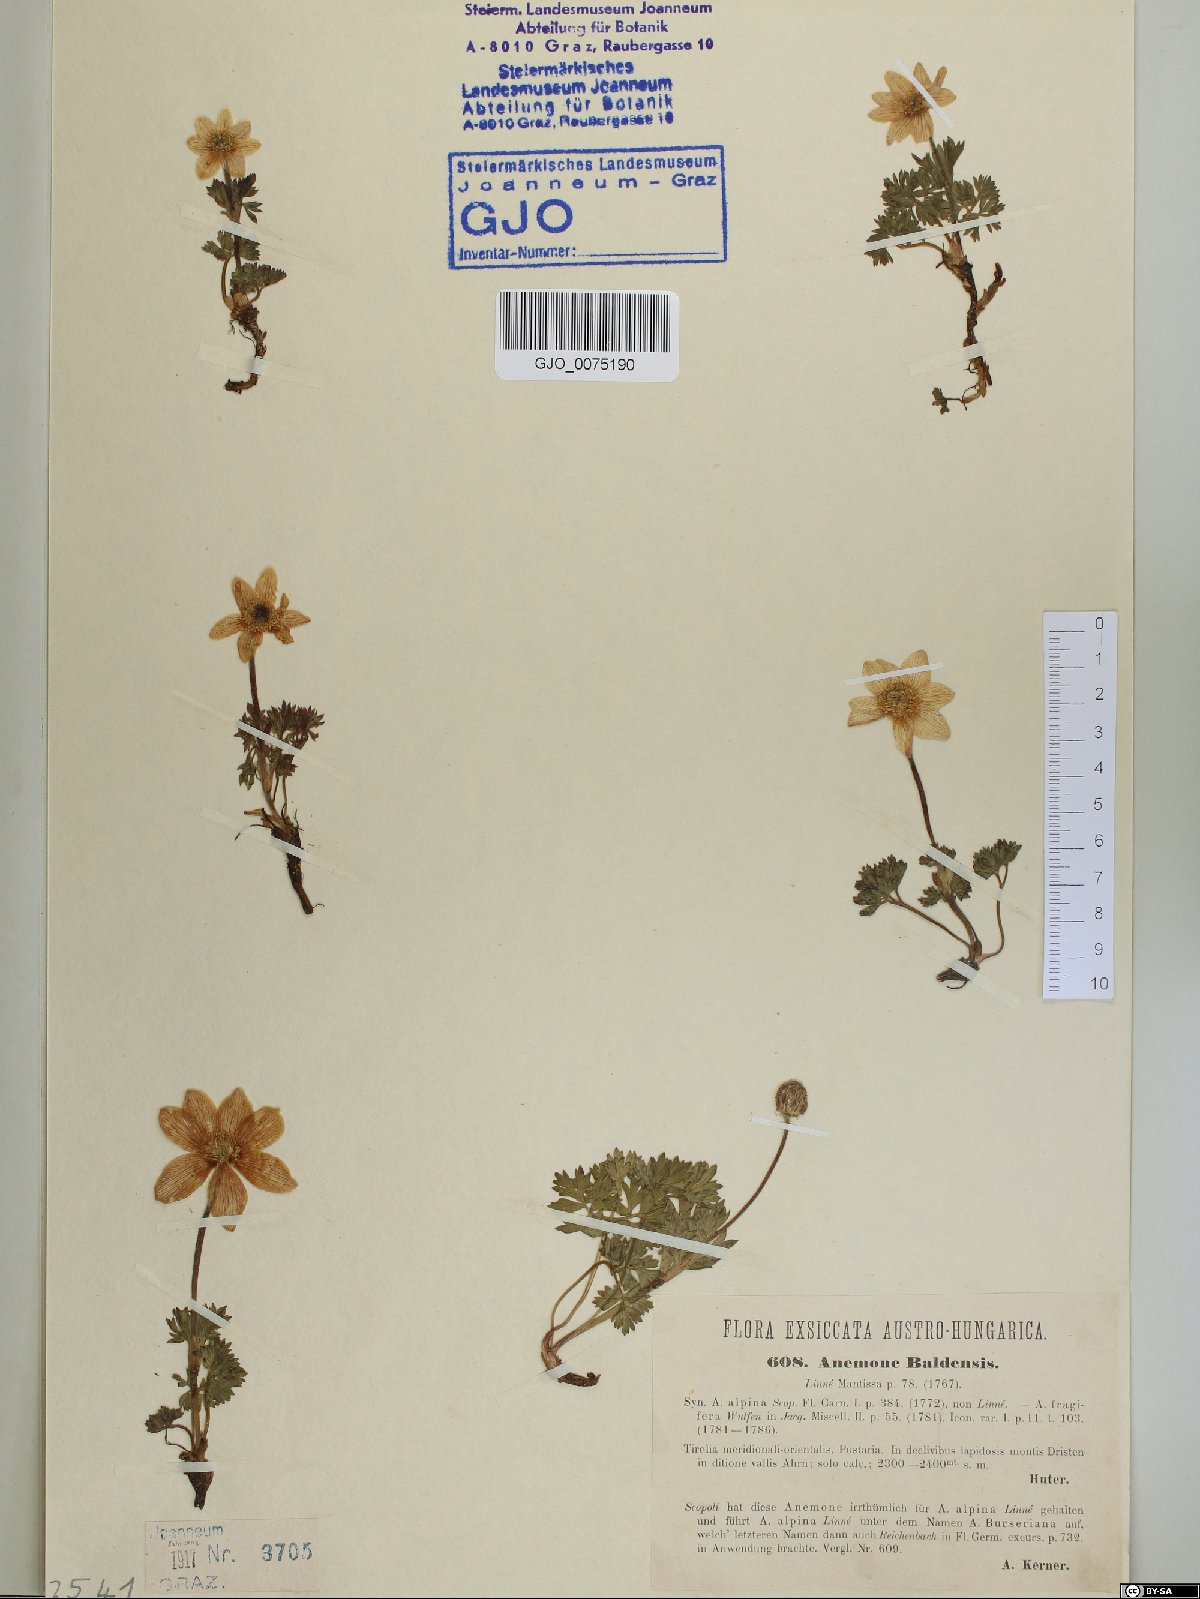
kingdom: Plantae
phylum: Tracheophyta
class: Magnoliopsida
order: Ranunculales
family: Ranunculaceae
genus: Anemone
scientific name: Anemone baldensis
